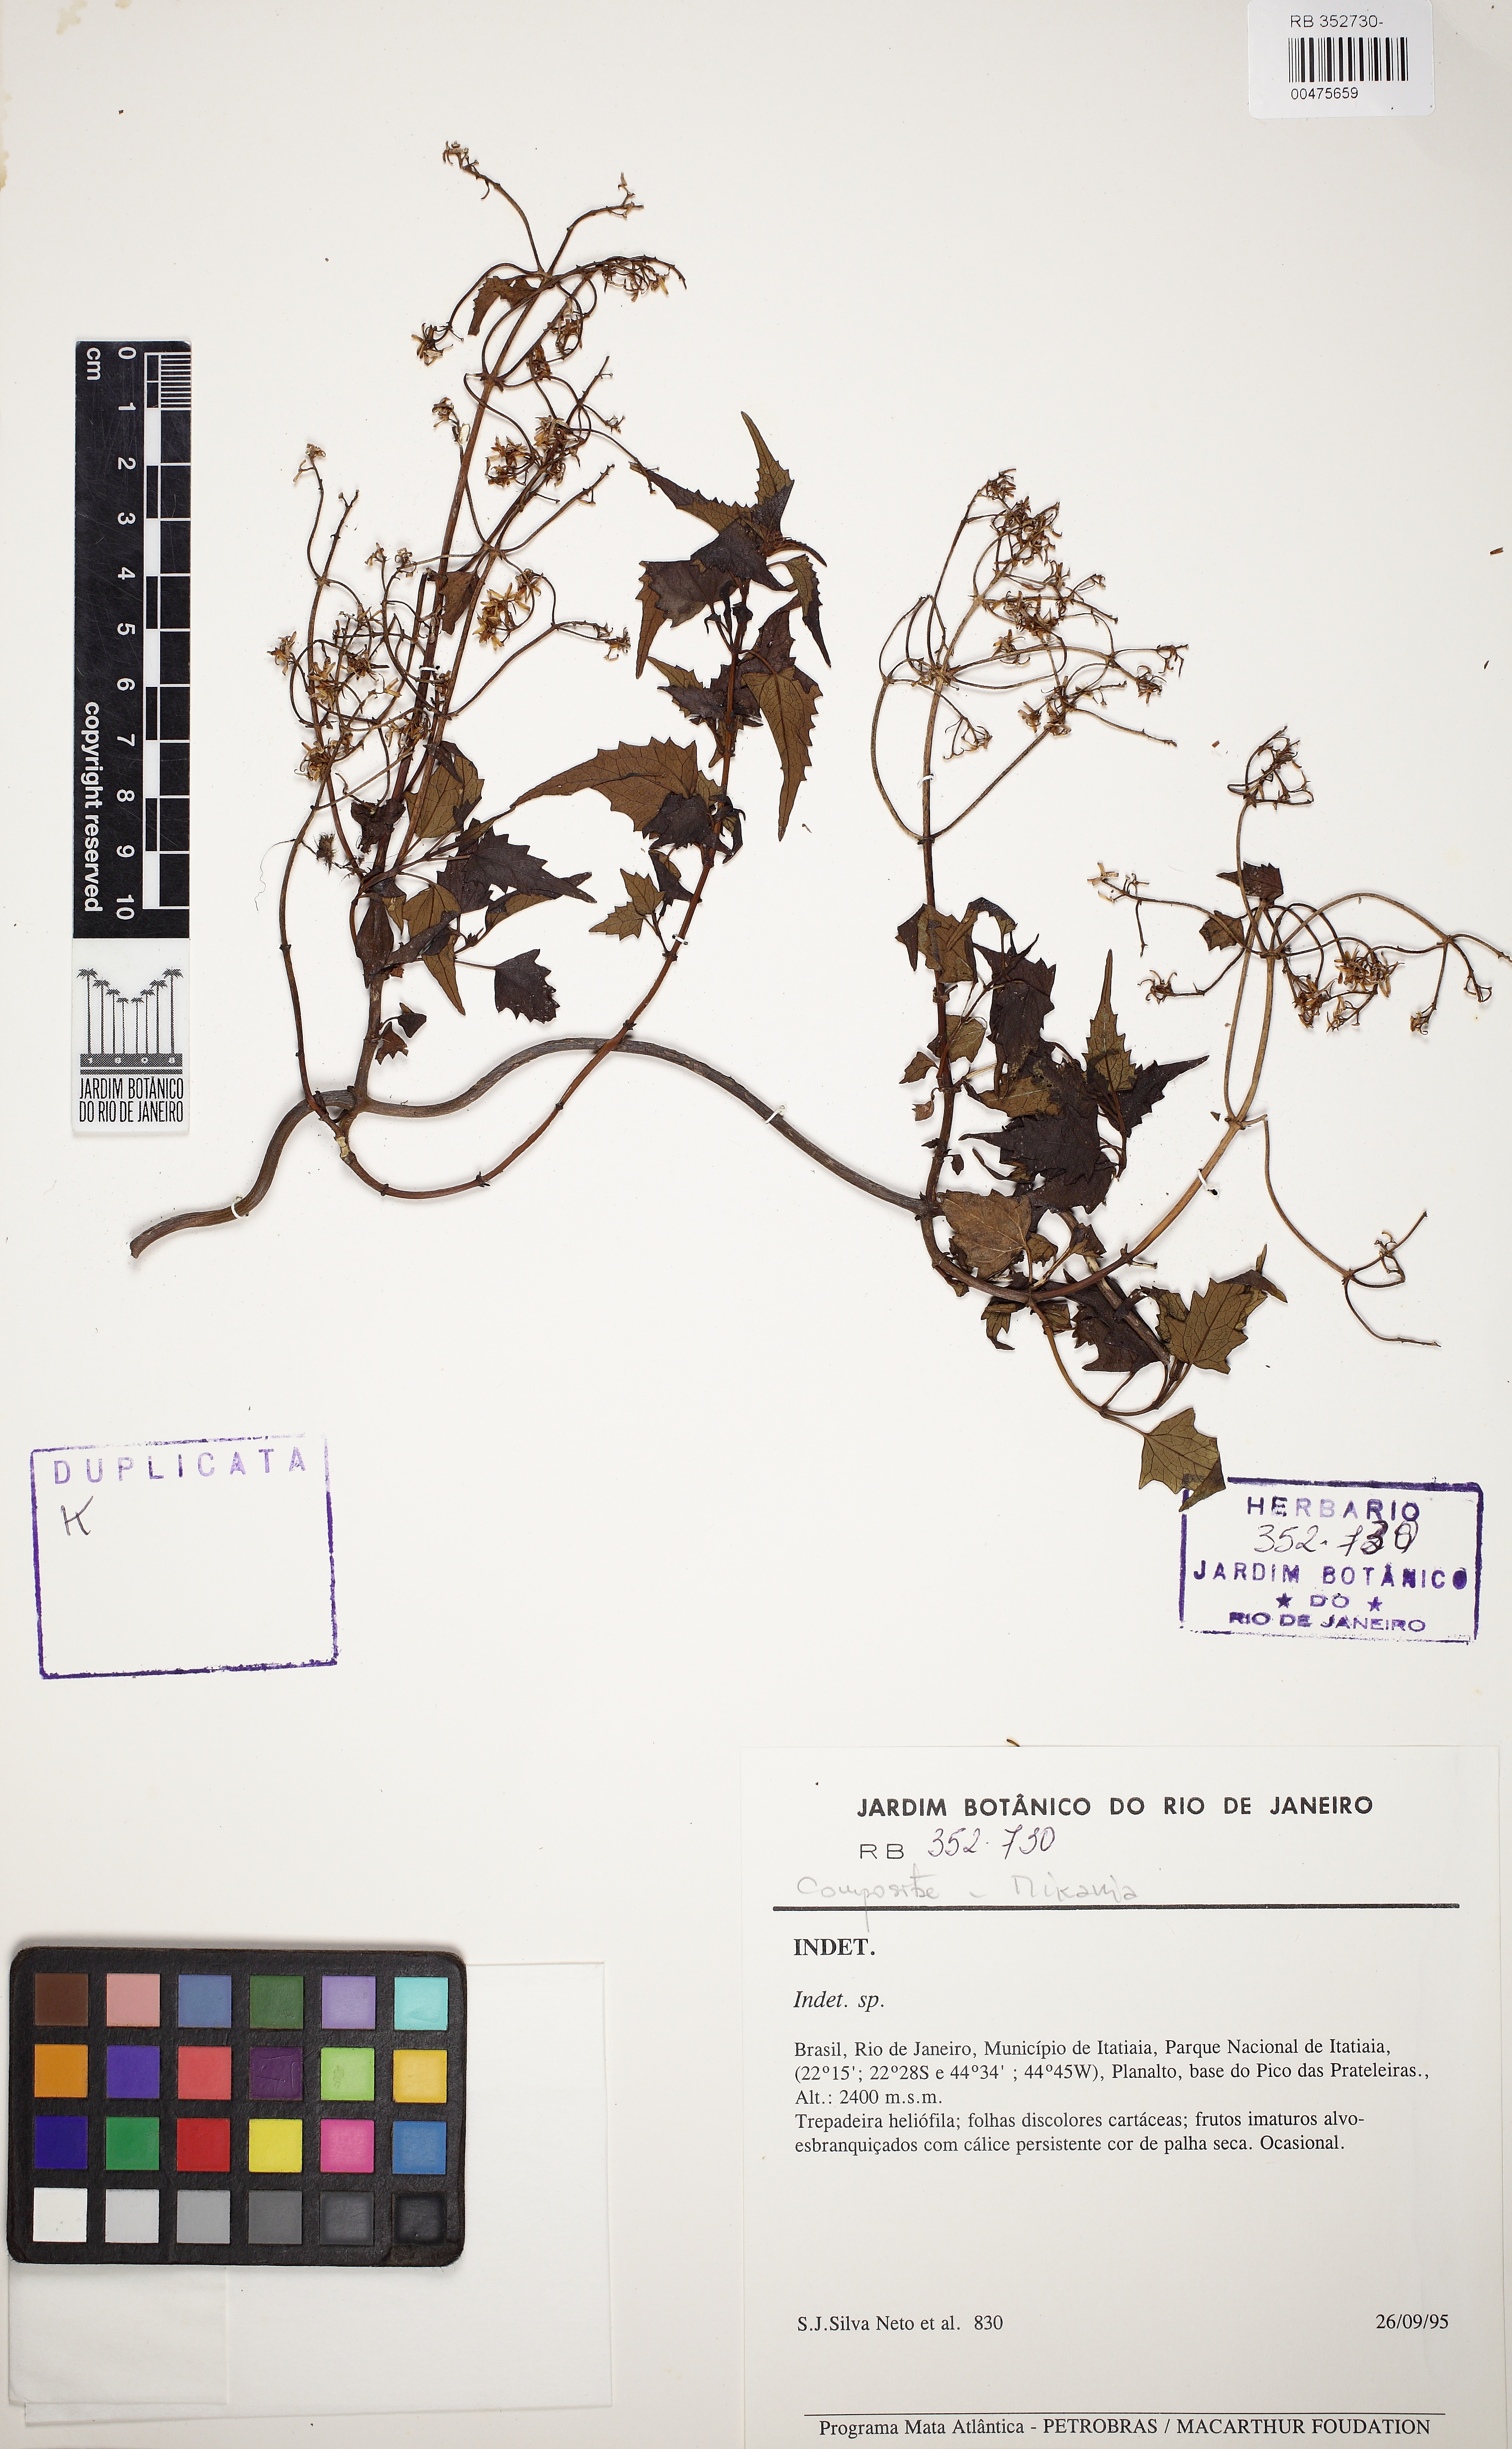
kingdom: Plantae
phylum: Tracheophyta
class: Magnoliopsida
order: Asterales
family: Asteraceae
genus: Mikania
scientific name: Mikania glaziovii
